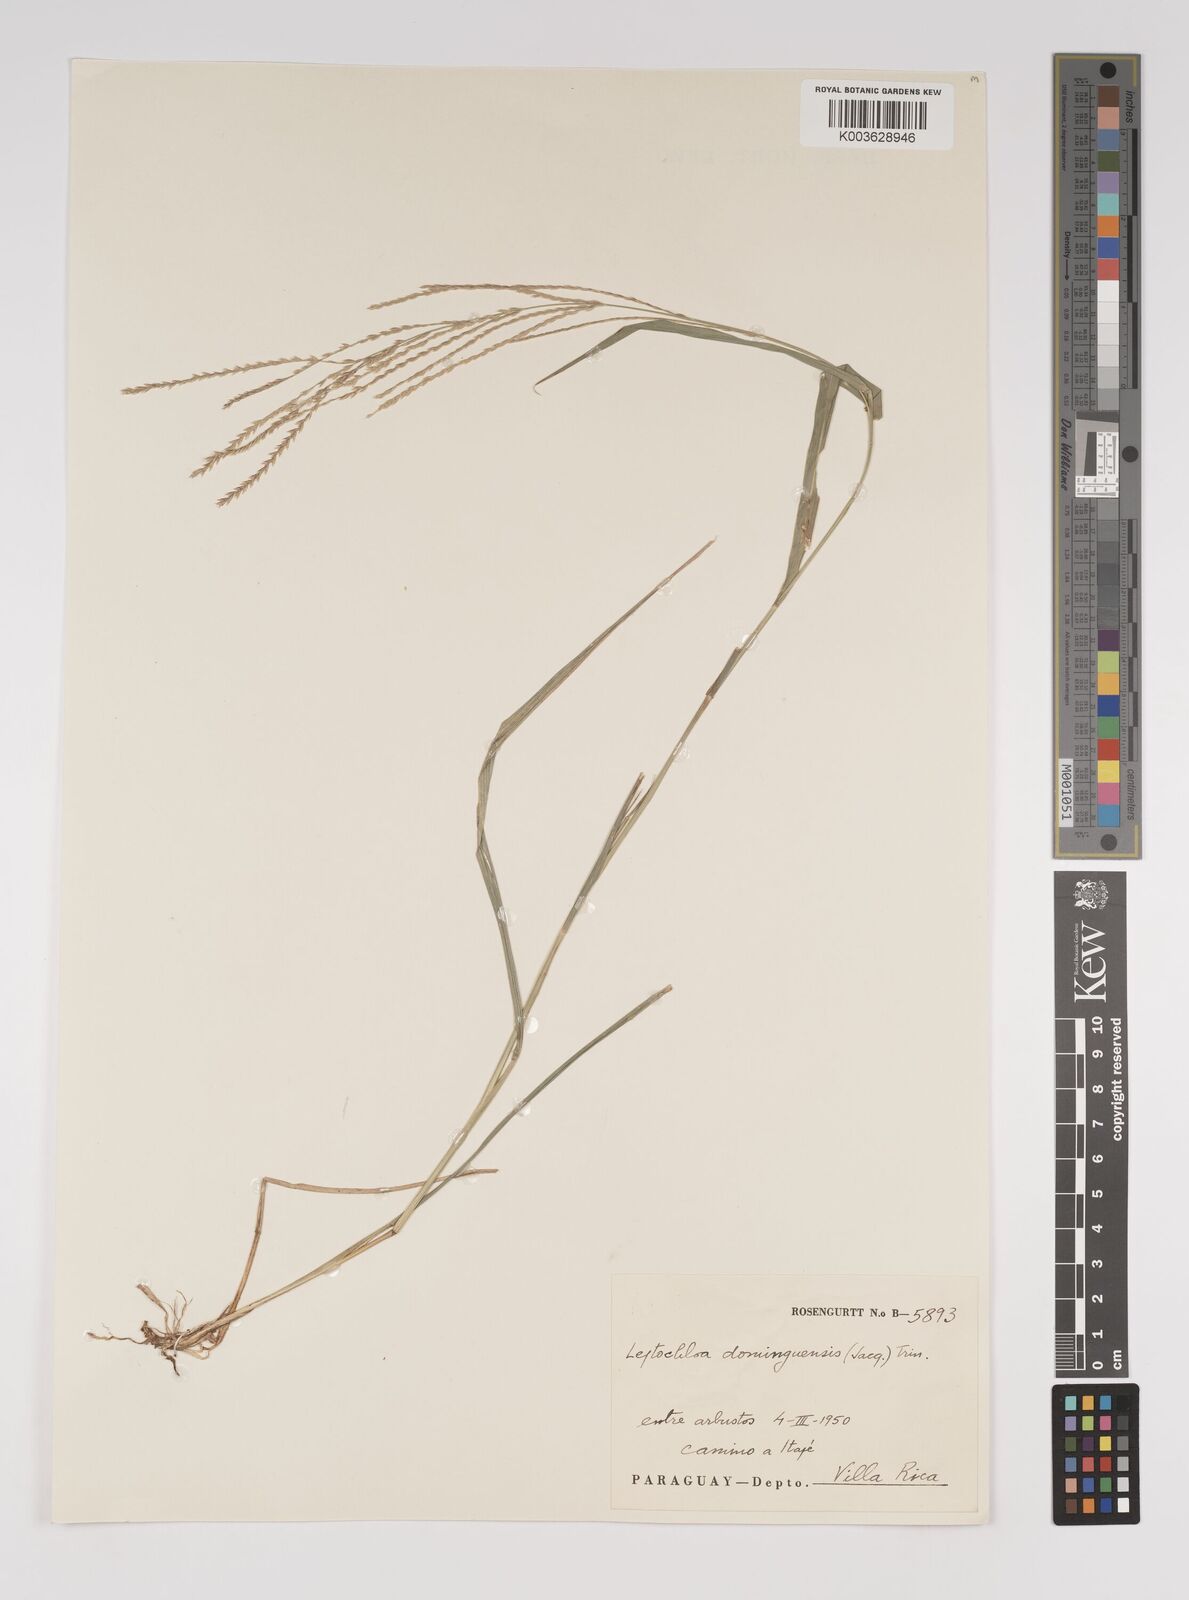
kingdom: Plantae
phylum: Tracheophyta
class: Liliopsida
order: Poales
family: Poaceae
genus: Leptochloa
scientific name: Leptochloa virgata
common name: Tropical sprangletop
